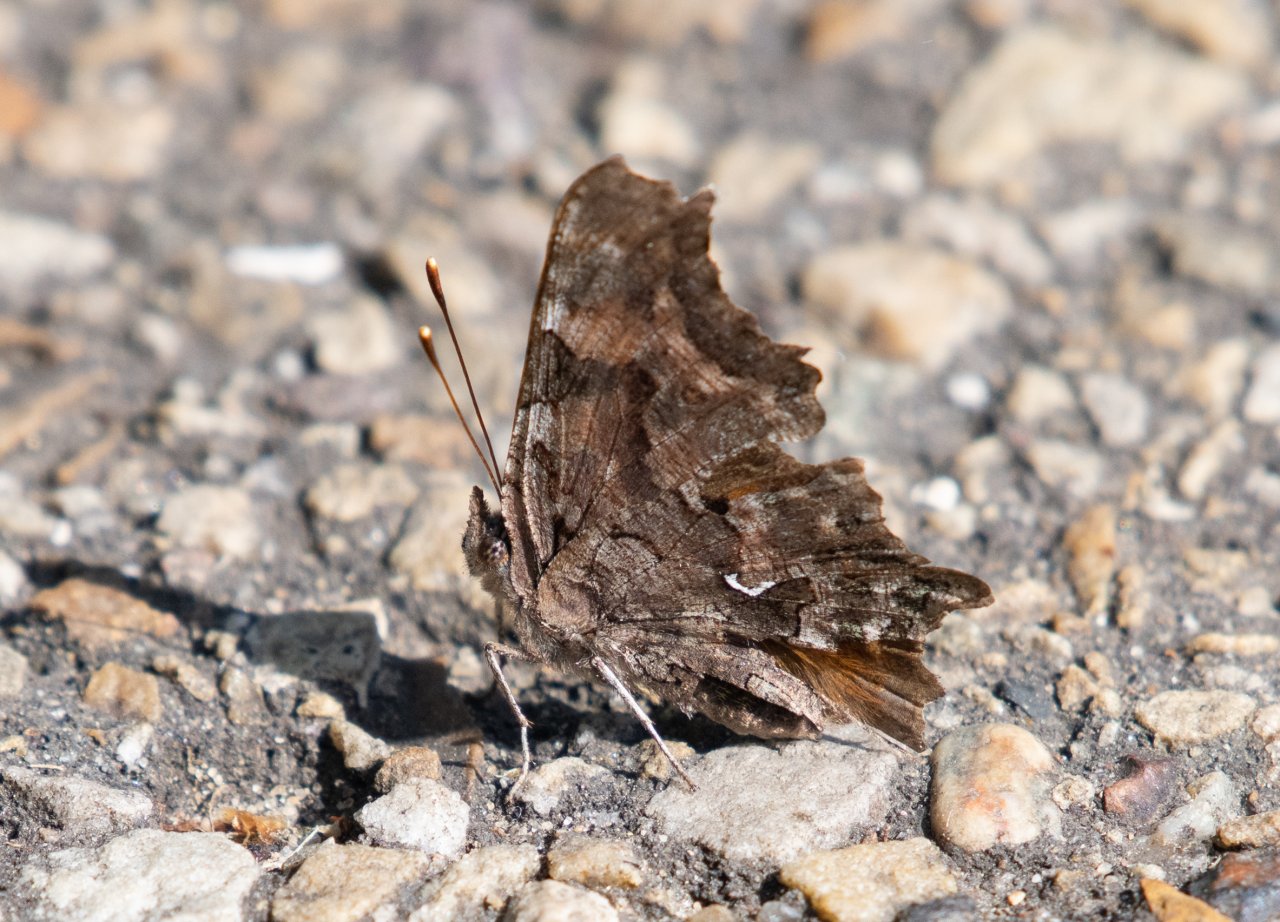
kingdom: Animalia
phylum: Arthropoda
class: Insecta
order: Lepidoptera
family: Nymphalidae
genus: Polygonia
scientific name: Polygonia faunus
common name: Green Comma
